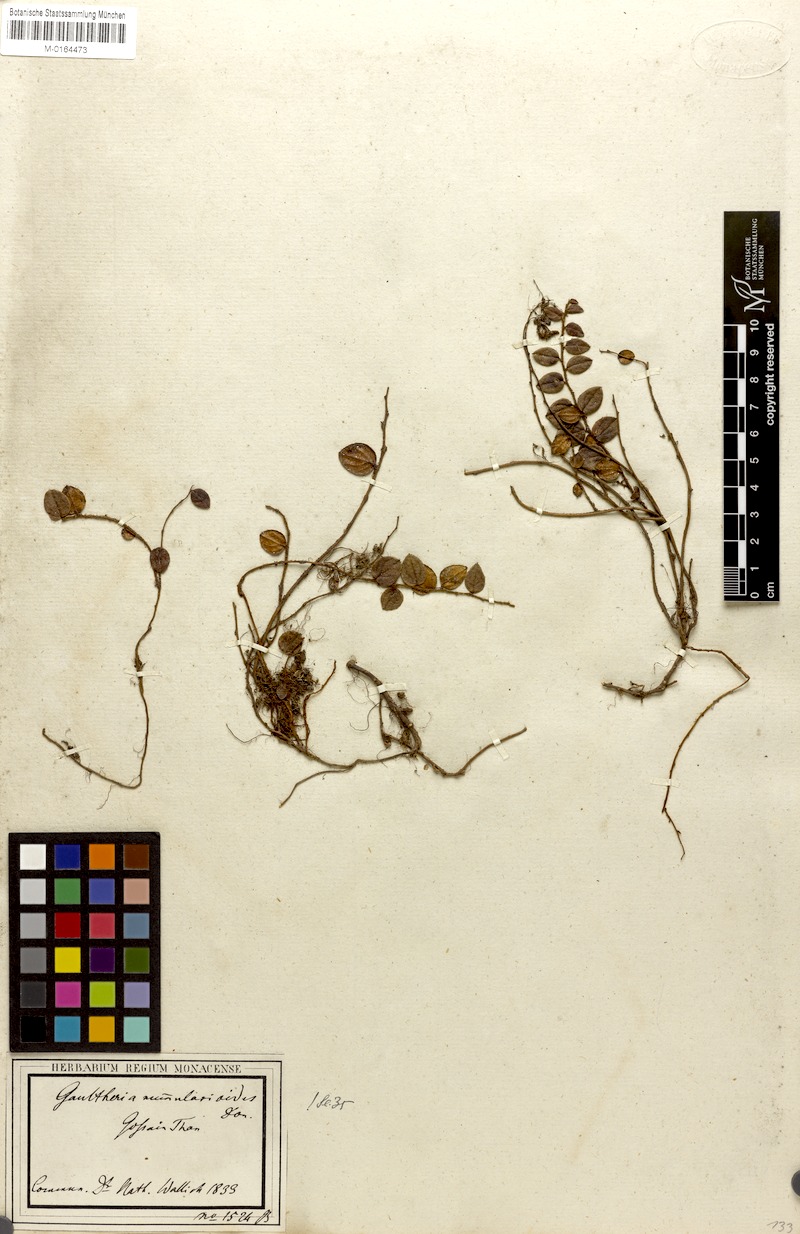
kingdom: Plantae
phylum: Tracheophyta
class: Magnoliopsida
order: Ericales
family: Ericaceae
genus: Gaultheria
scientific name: Gaultheria nummularioides
